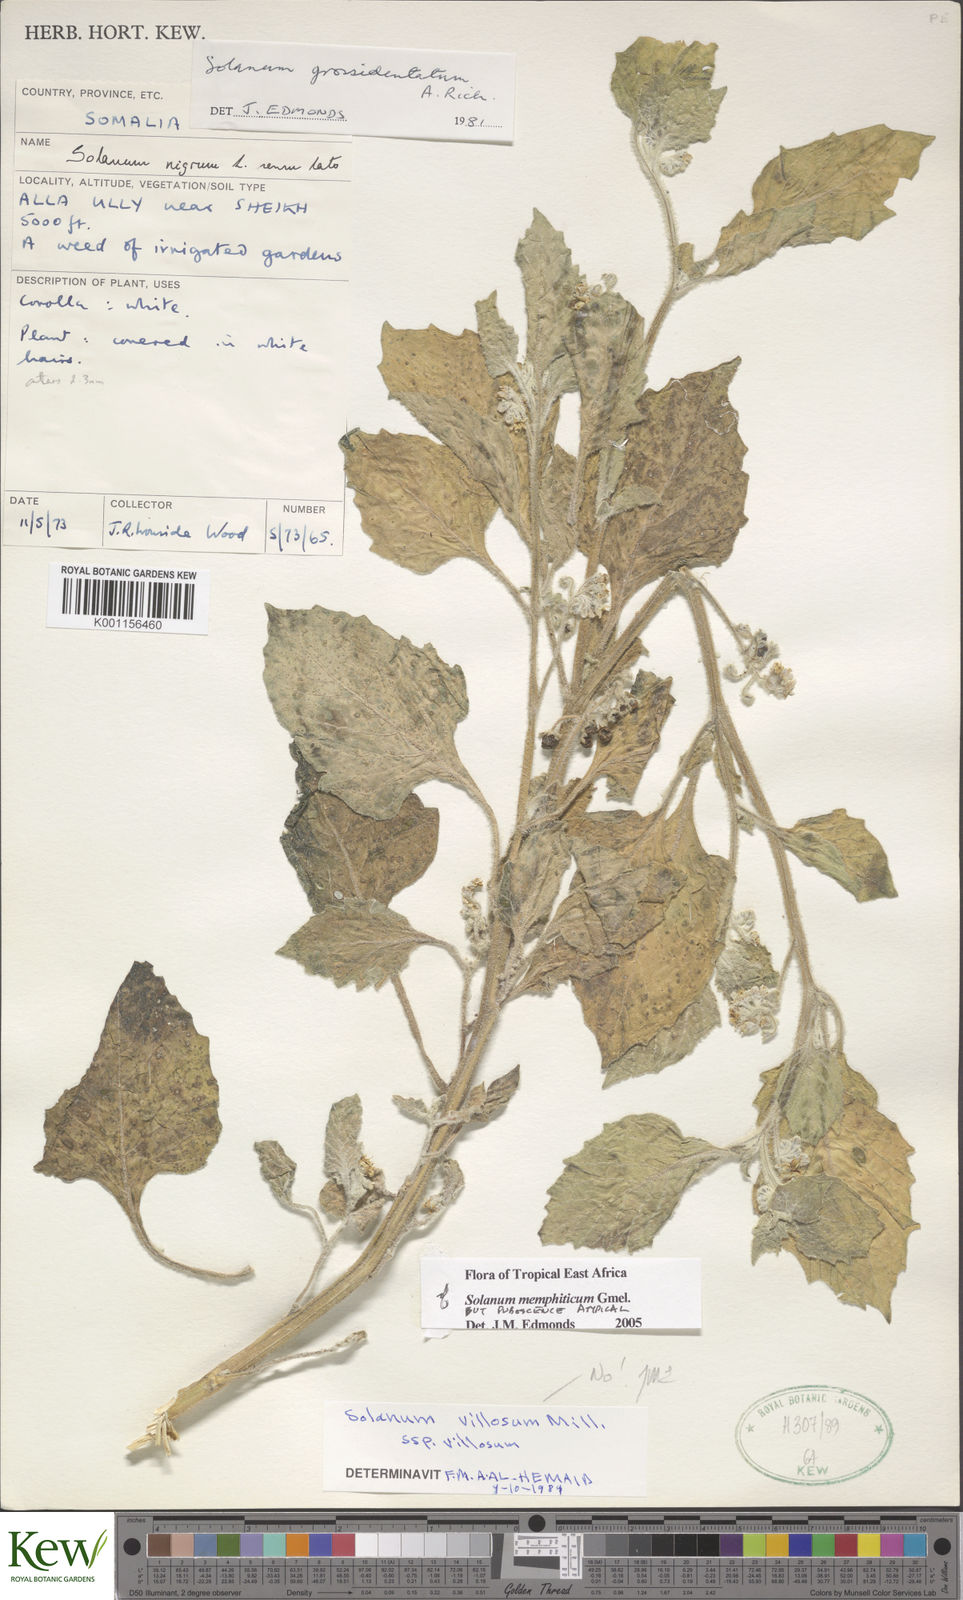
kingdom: Plantae
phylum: Tracheophyta
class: Magnoliopsida
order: Solanales
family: Solanaceae
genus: Solanum
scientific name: Solanum memphiticum
